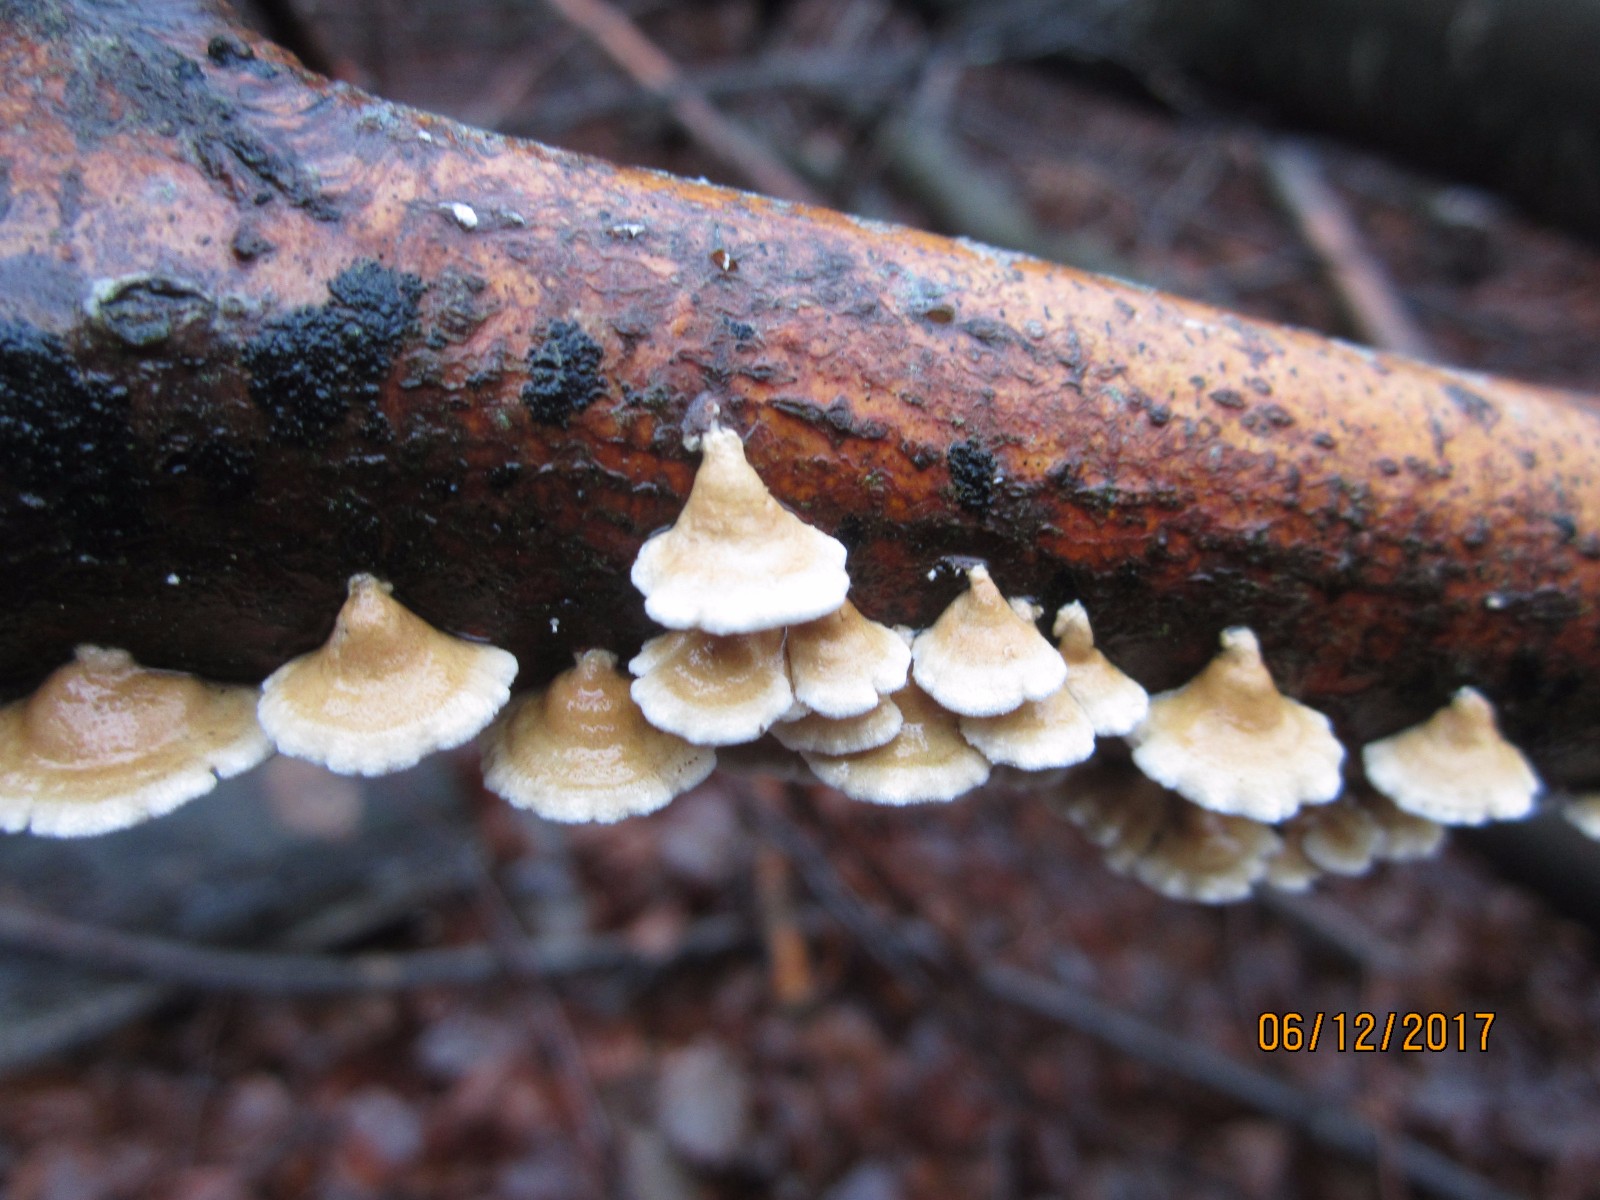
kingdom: Fungi
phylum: Basidiomycota
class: Agaricomycetes
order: Amylocorticiales
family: Amylocorticiaceae
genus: Plicaturopsis
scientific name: Plicaturopsis crispa
